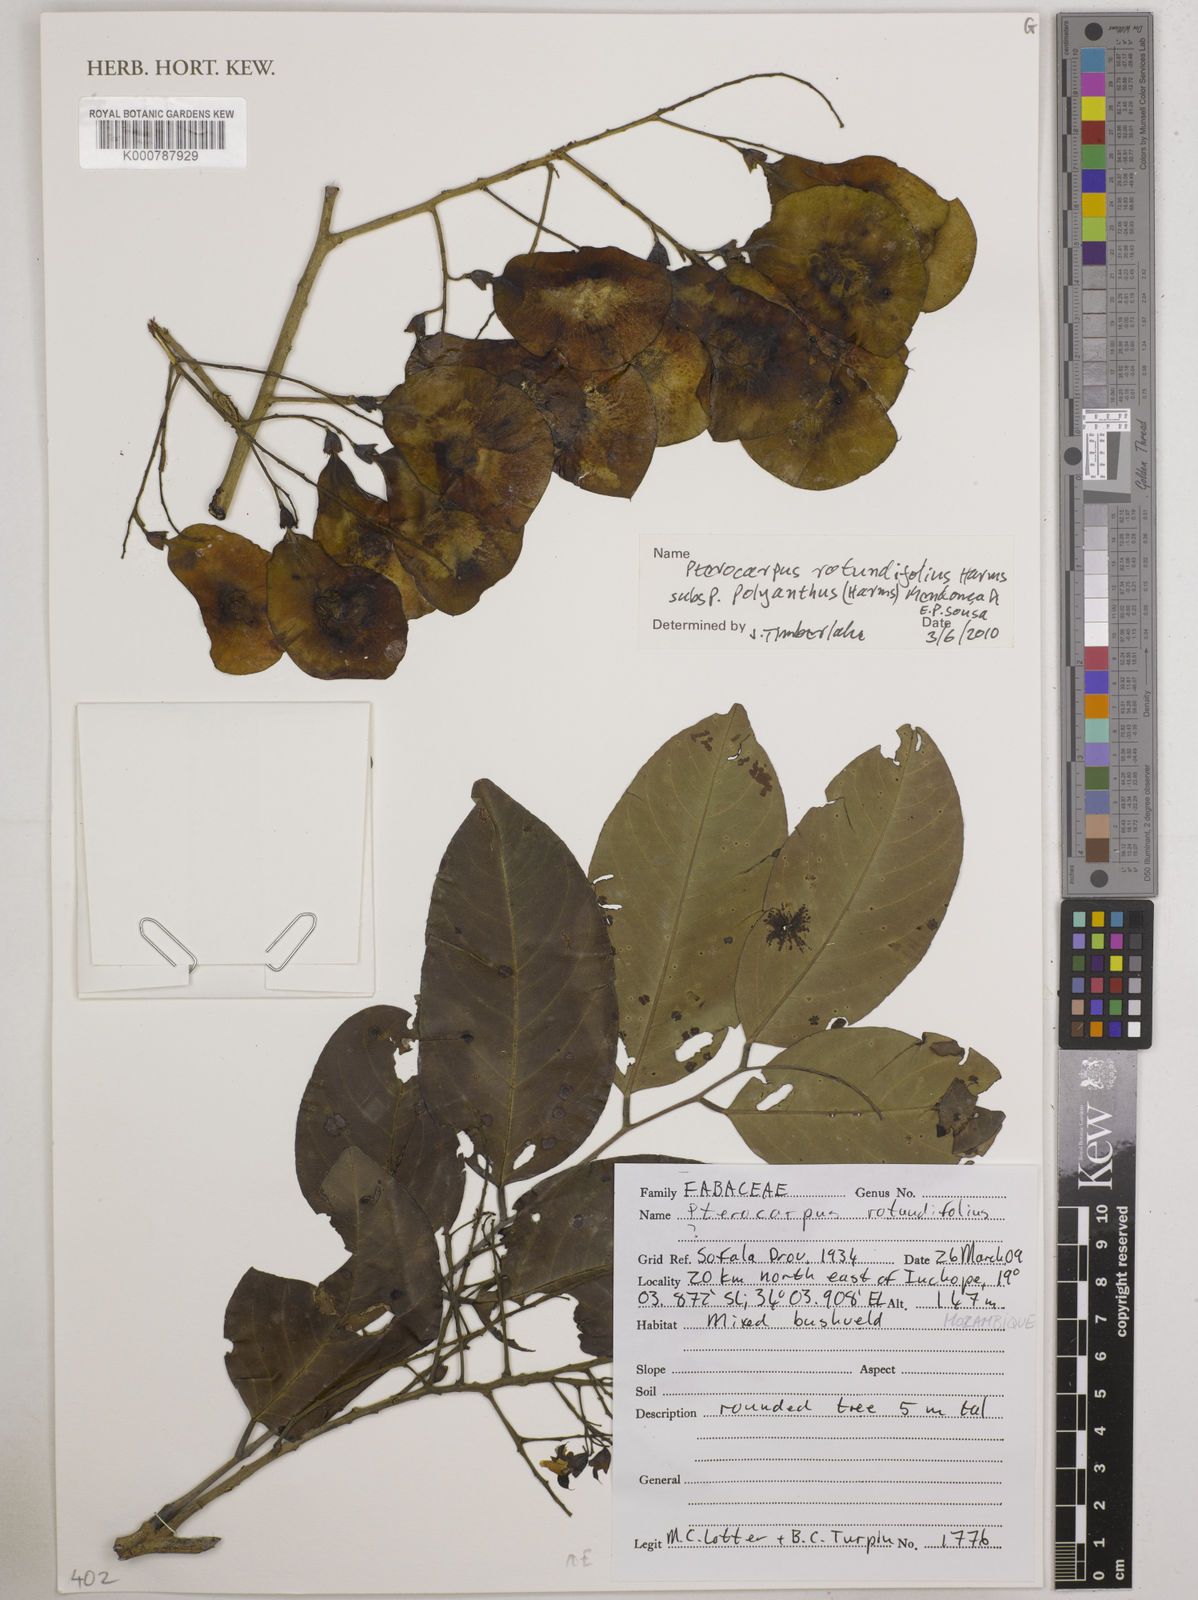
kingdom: Plantae
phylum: Tracheophyta
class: Magnoliopsida
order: Fabales
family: Fabaceae
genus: Pterocarpus
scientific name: Pterocarpus
